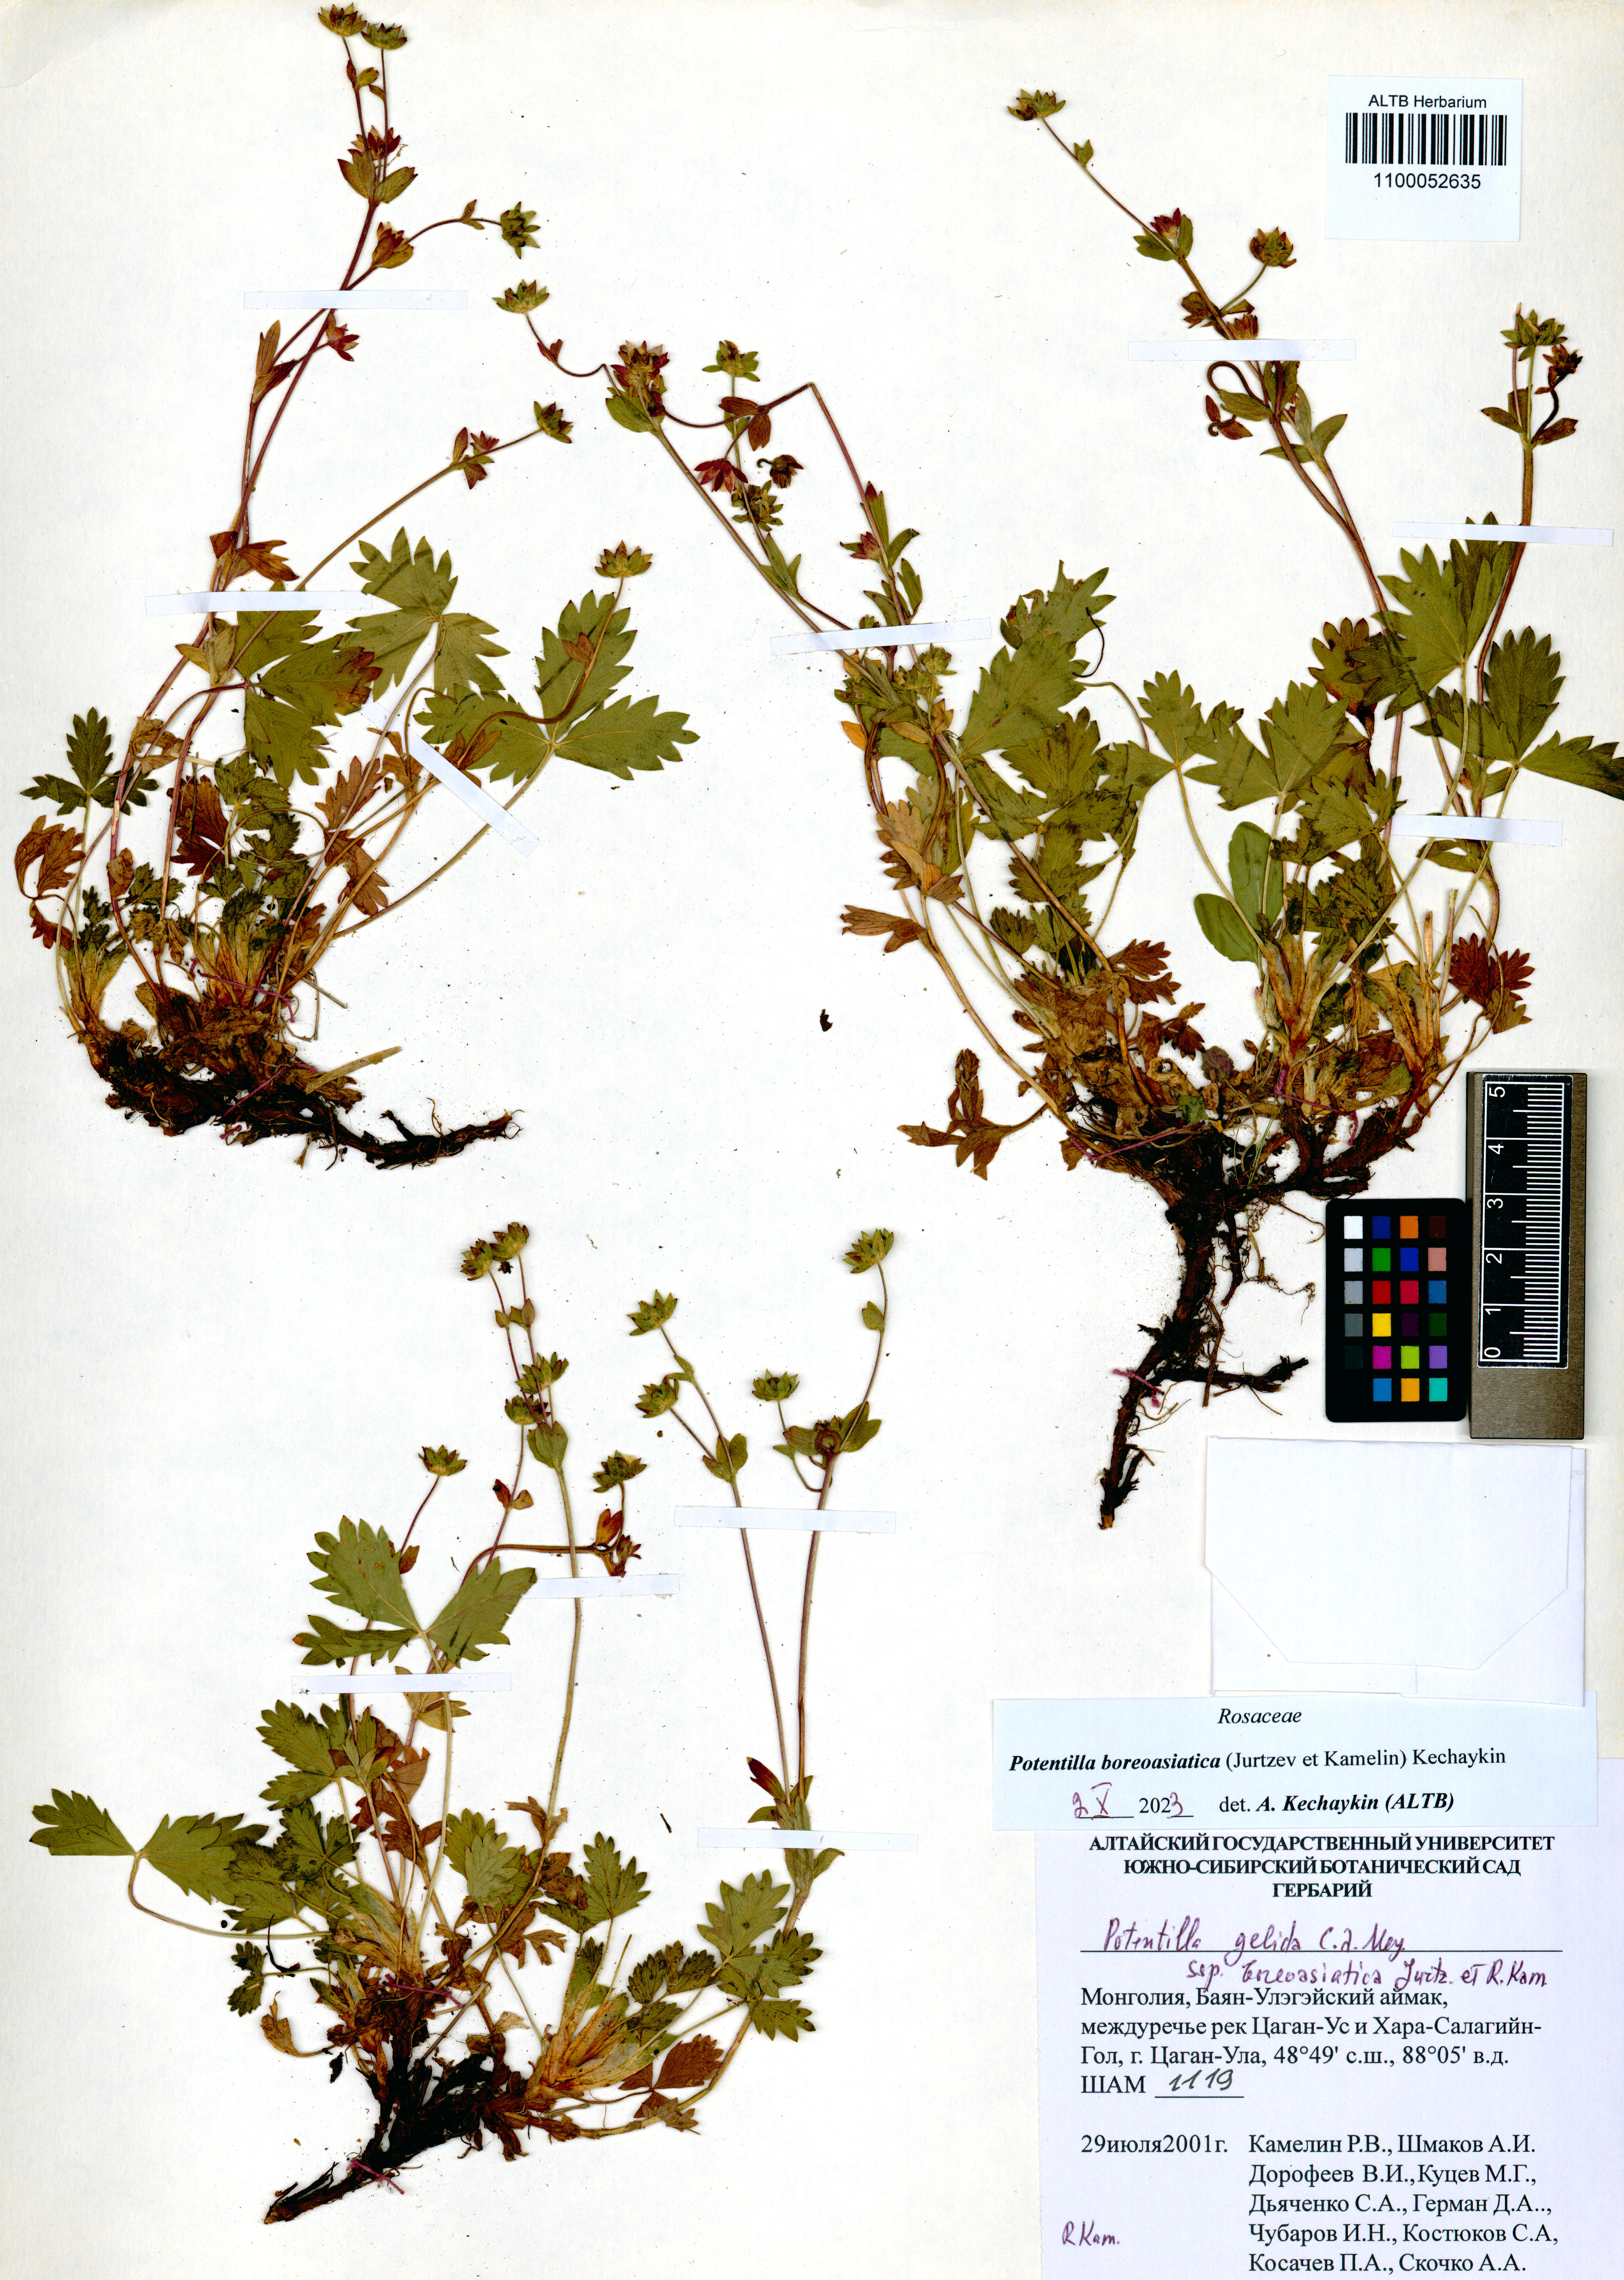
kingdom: Plantae
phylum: Tracheophyta
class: Magnoliopsida
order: Rosales
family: Rosaceae
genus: Potentilla
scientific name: Potentilla
